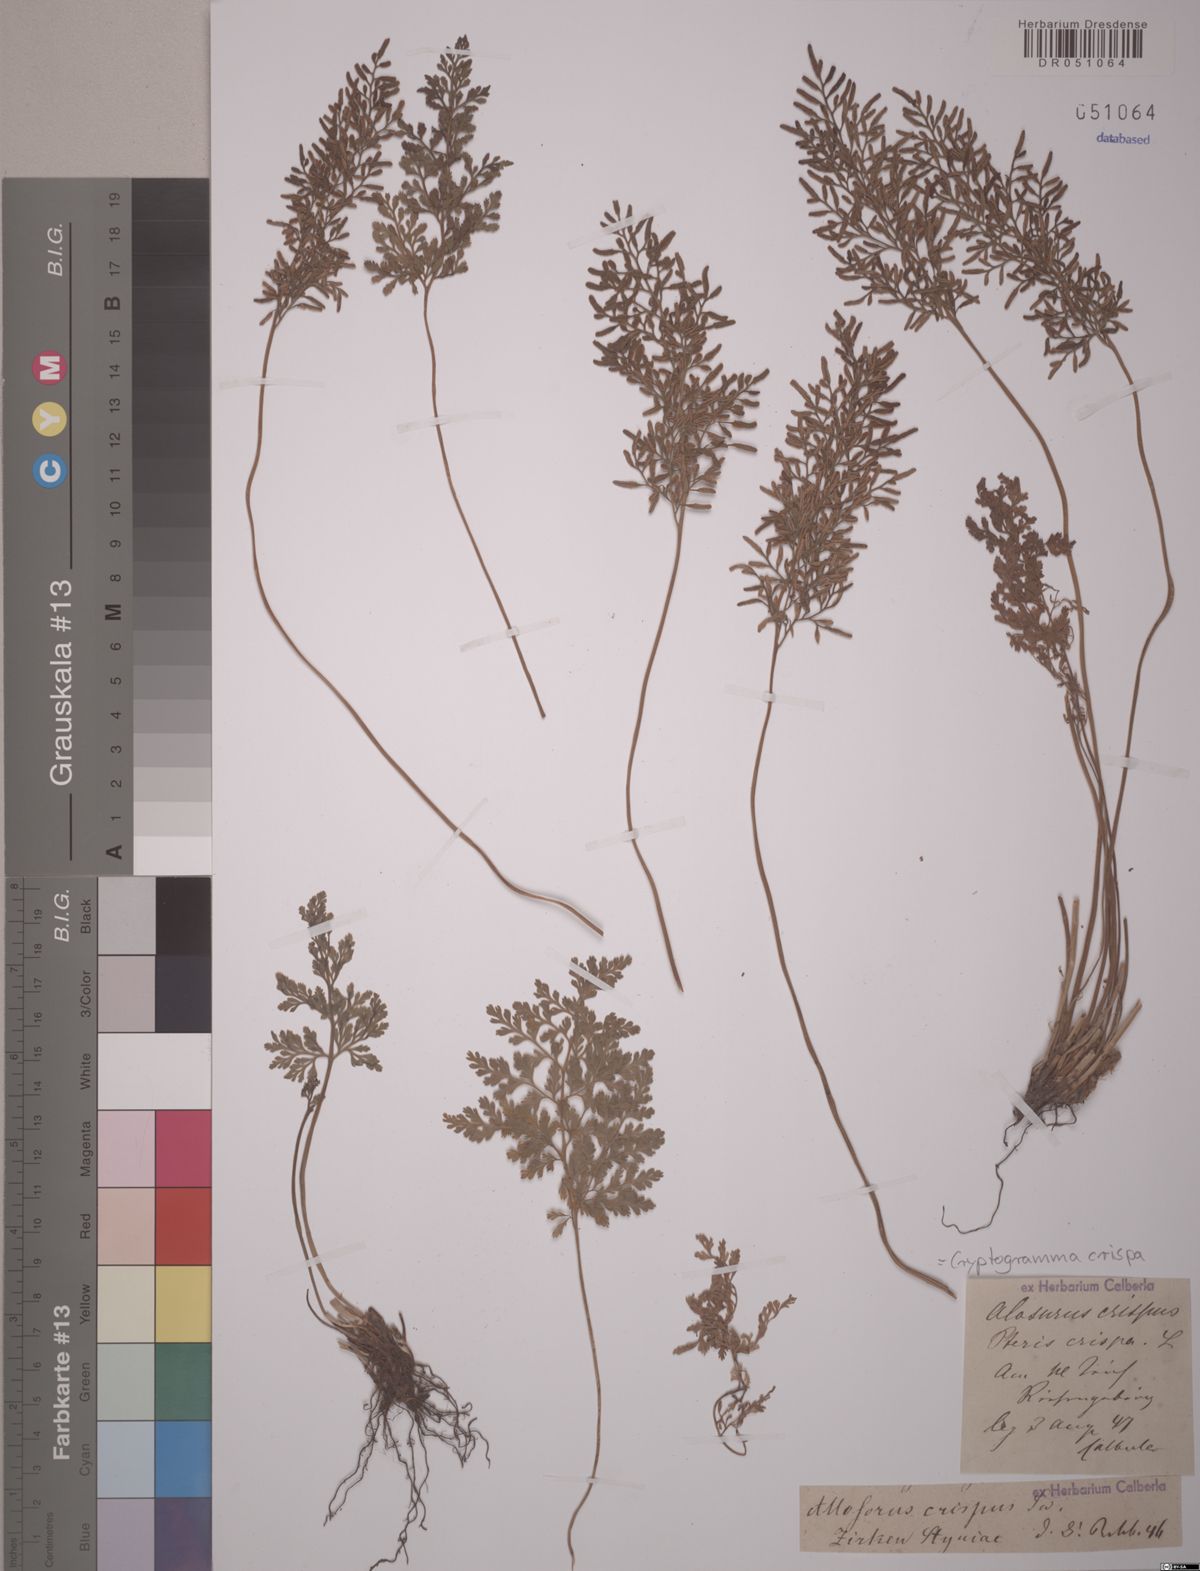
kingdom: Plantae
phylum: Tracheophyta
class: Polypodiopsida
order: Polypodiales
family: Pteridaceae
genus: Cryptogramma
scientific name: Cryptogramma crispa
